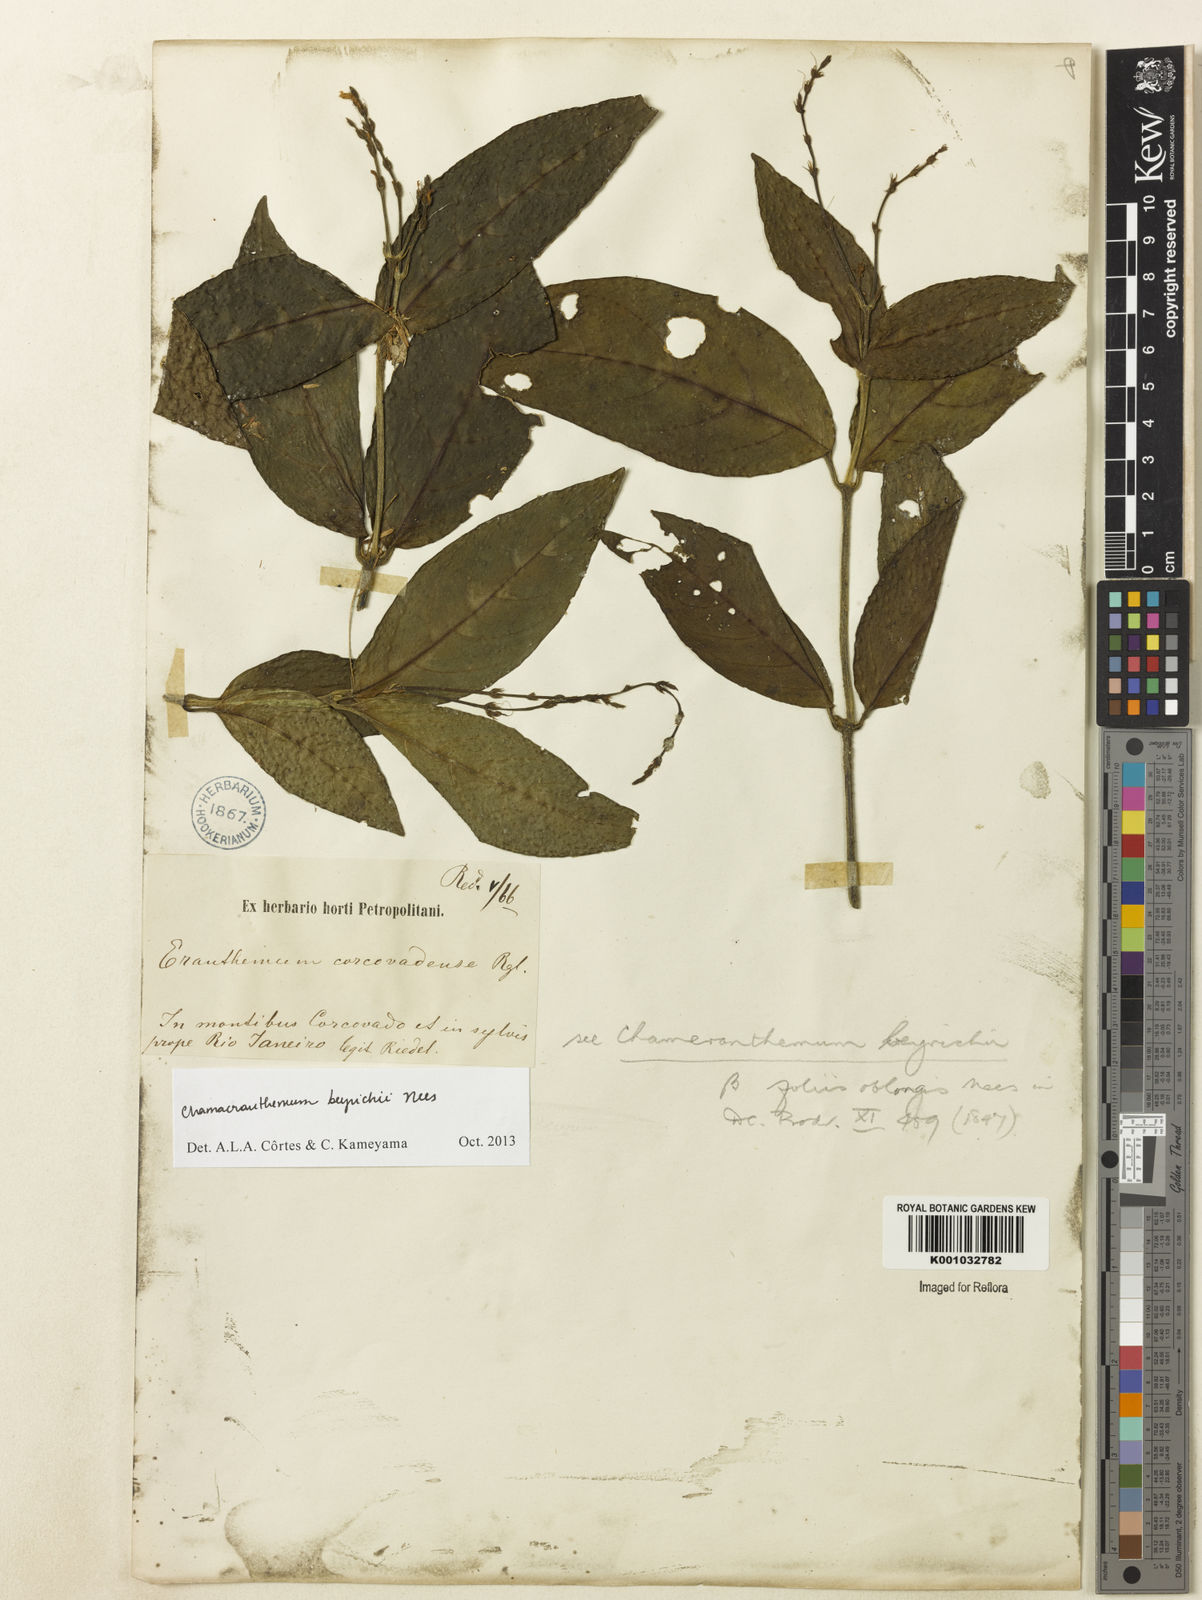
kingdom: Plantae
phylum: Tracheophyta
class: Magnoliopsida
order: Lamiales
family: Acanthaceae
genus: Chamaeranthemum
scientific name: Chamaeranthemum beyrichii
